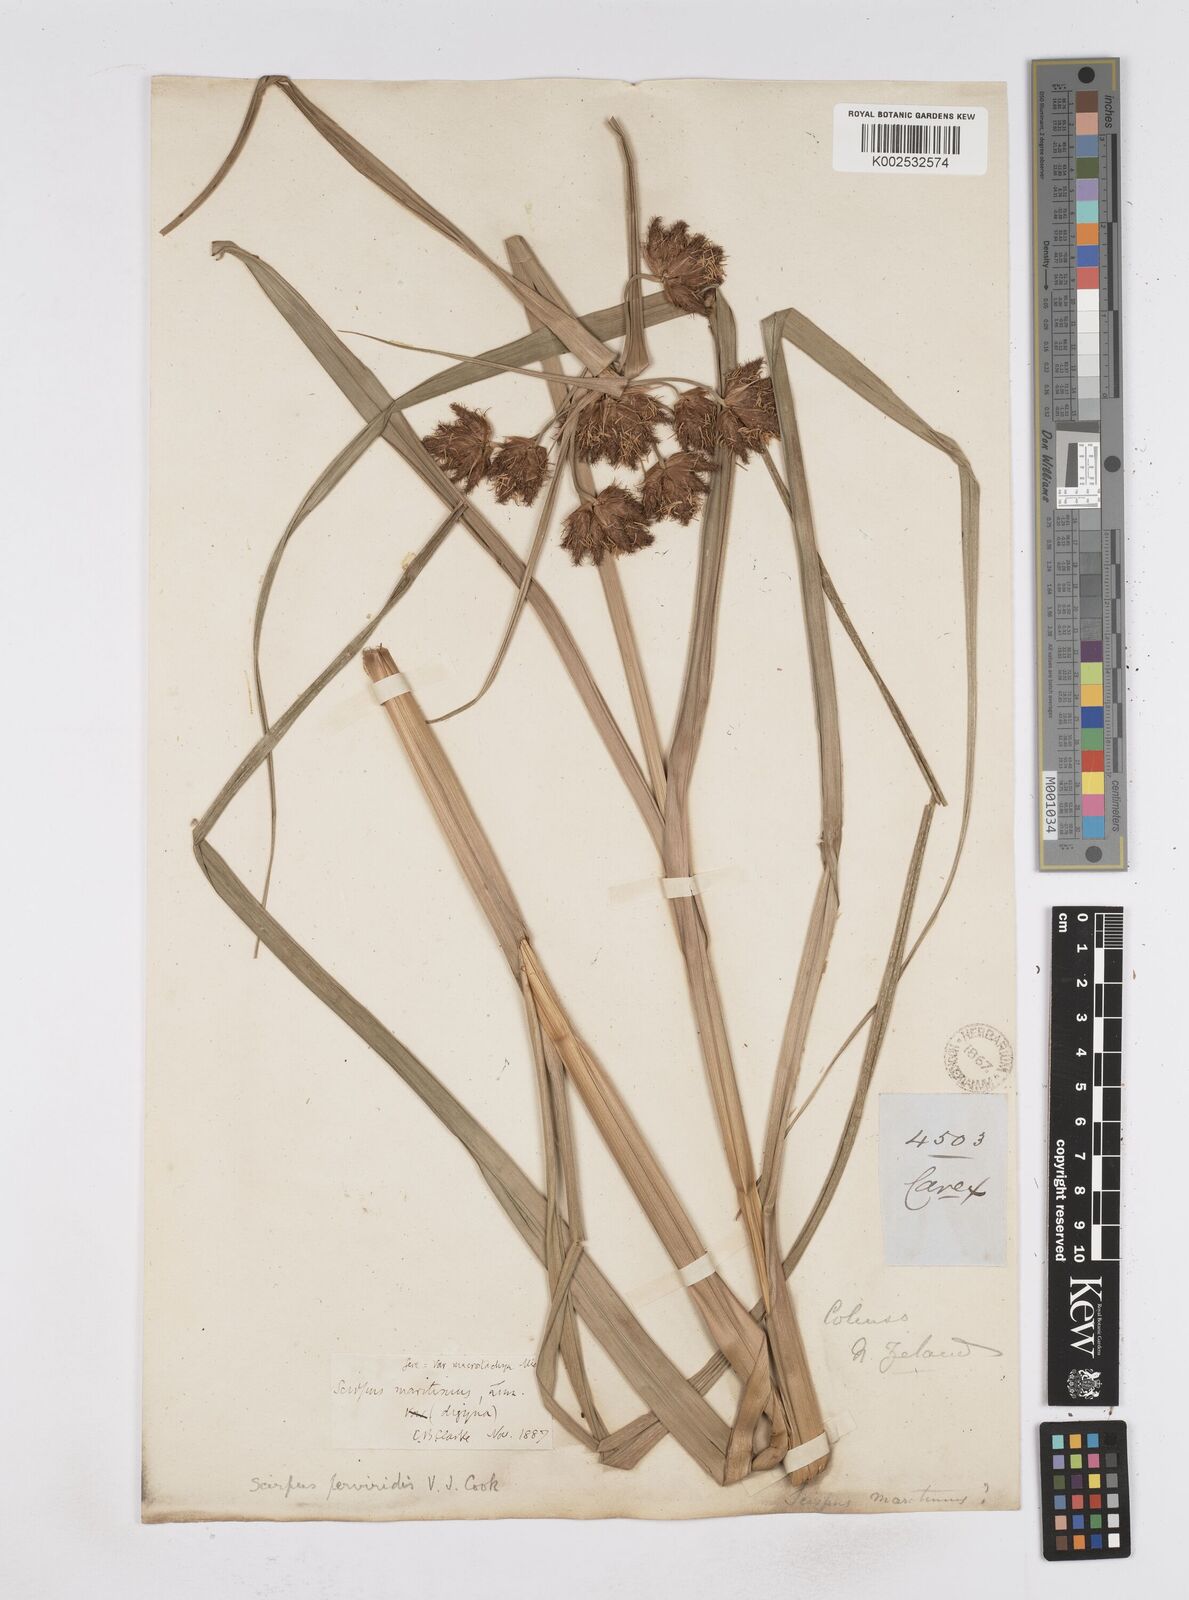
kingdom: Plantae
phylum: Tracheophyta
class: Liliopsida
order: Poales
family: Cyperaceae
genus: Bolboschoenus
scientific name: Bolboschoenus
